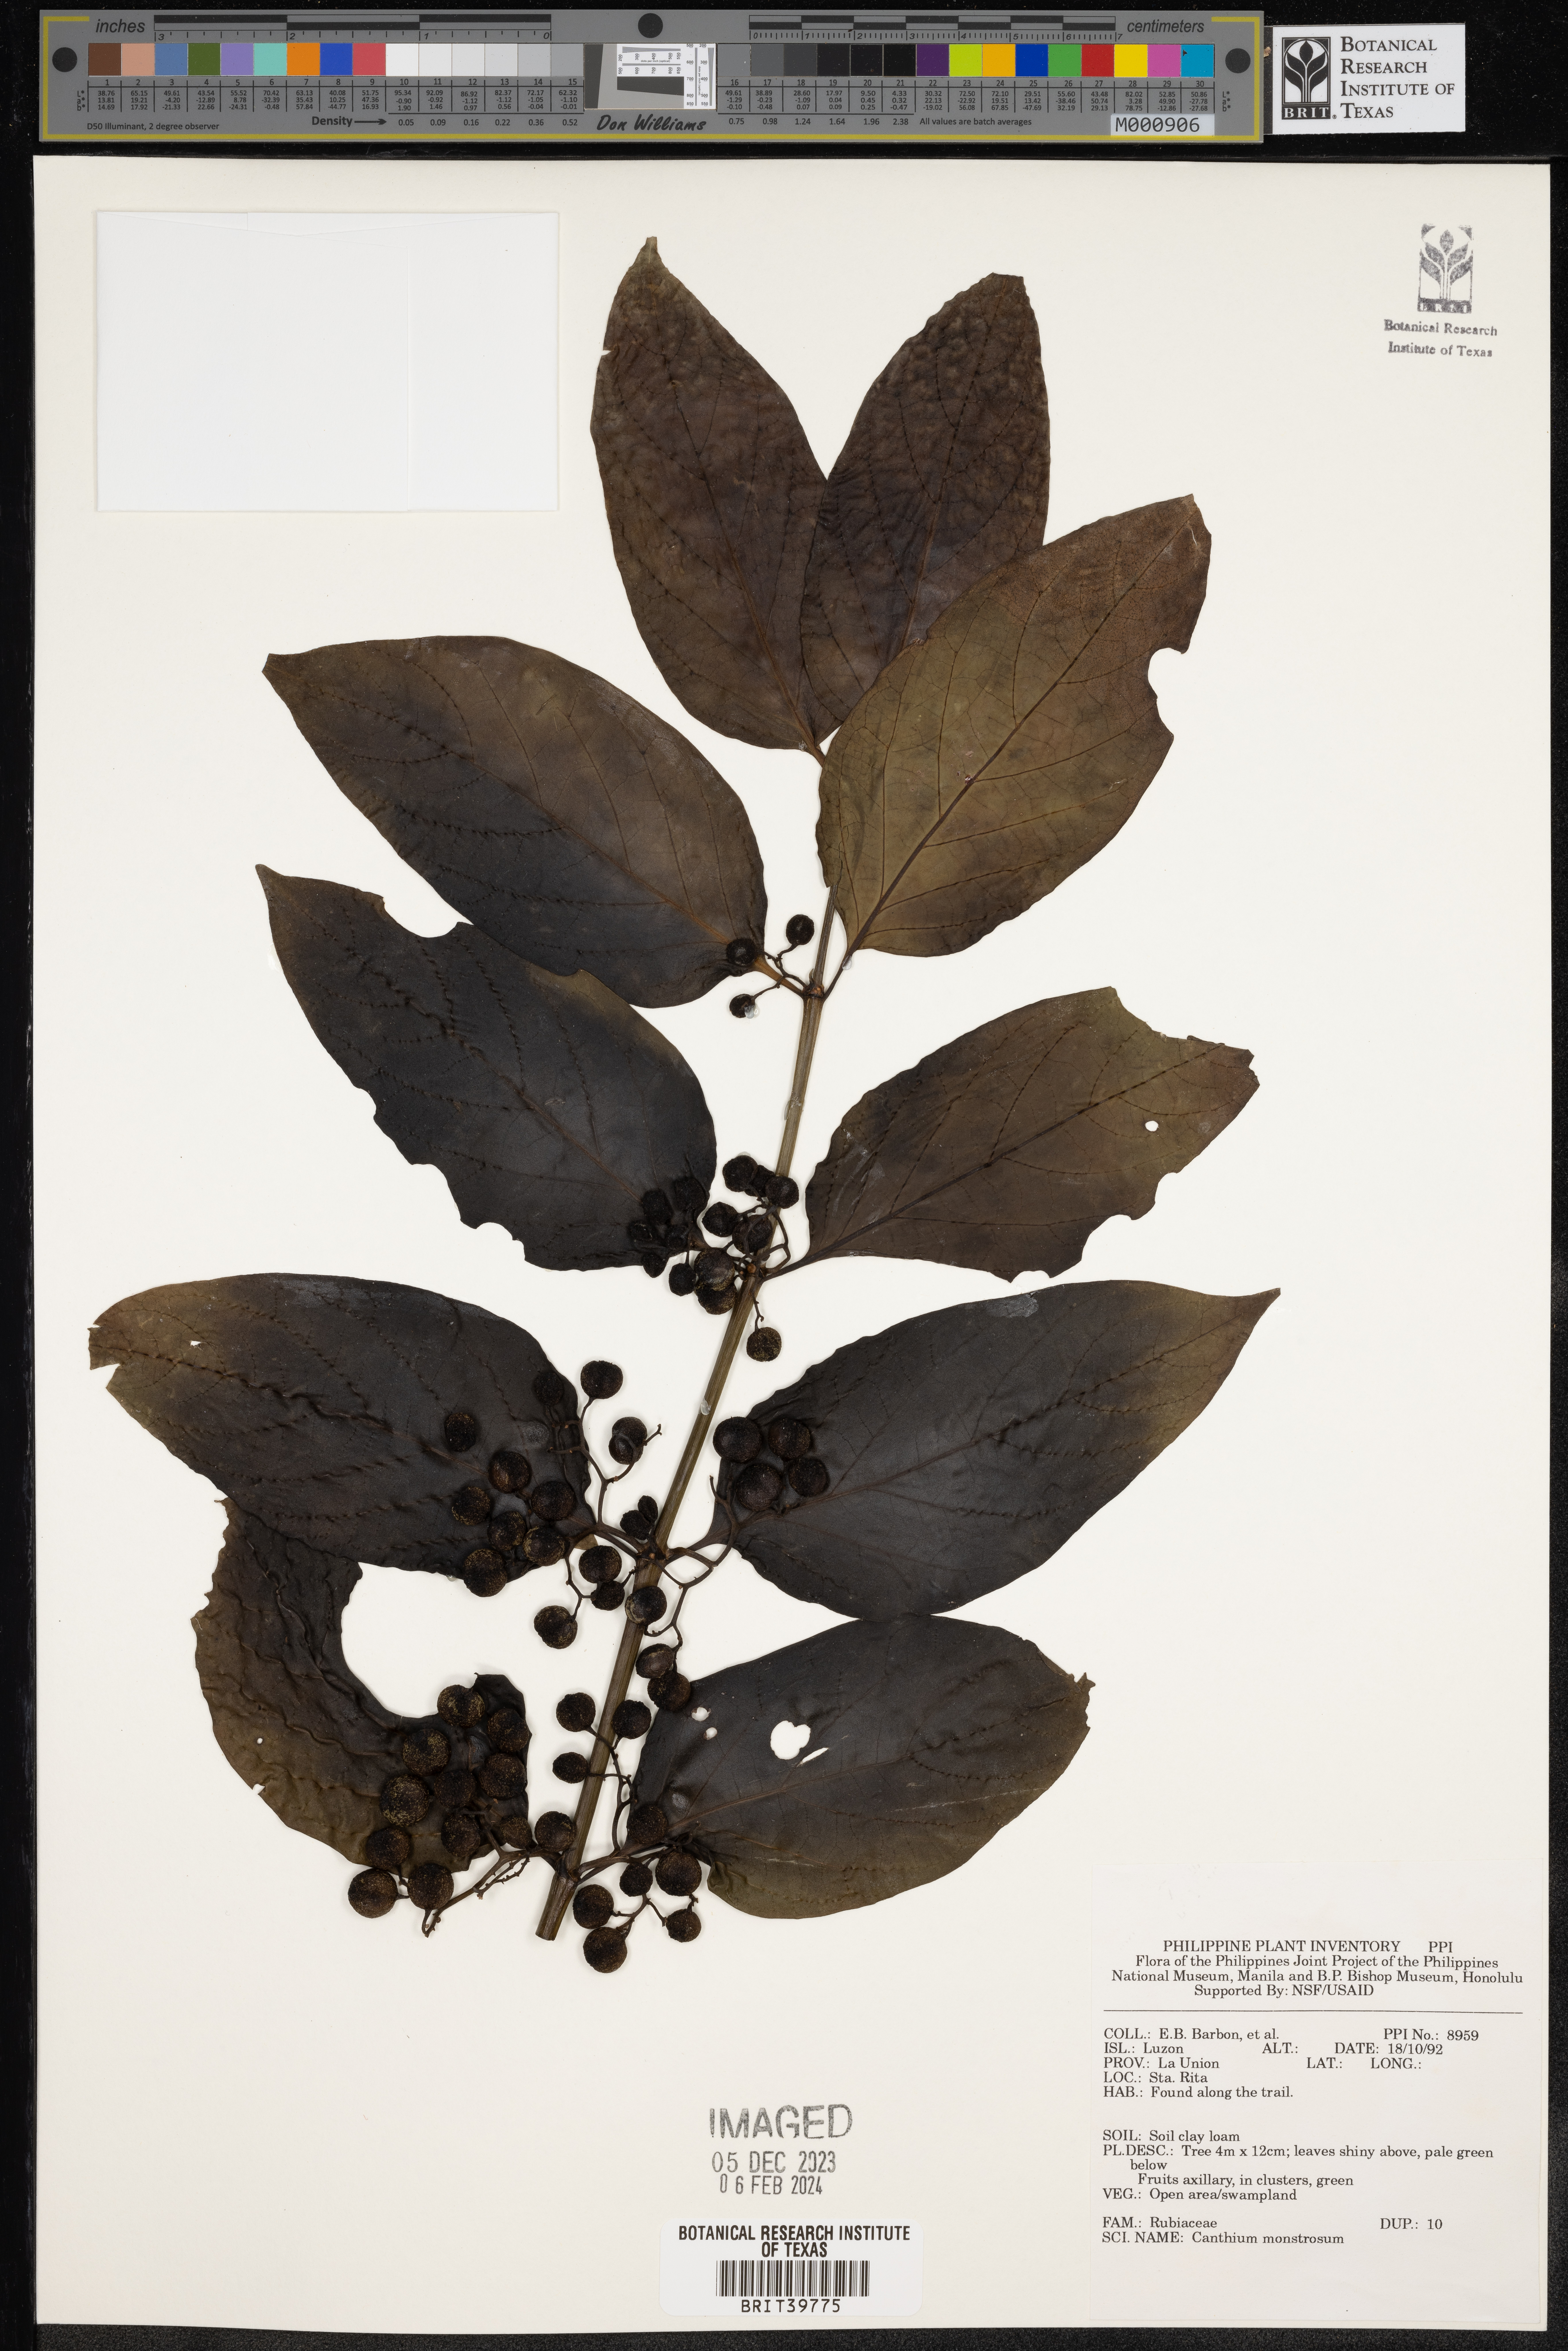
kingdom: Plantae
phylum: Tracheophyta
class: Magnoliopsida
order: Gentianales
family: Rubiaceae
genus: Kanapia
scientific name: Kanapia monstrosa
